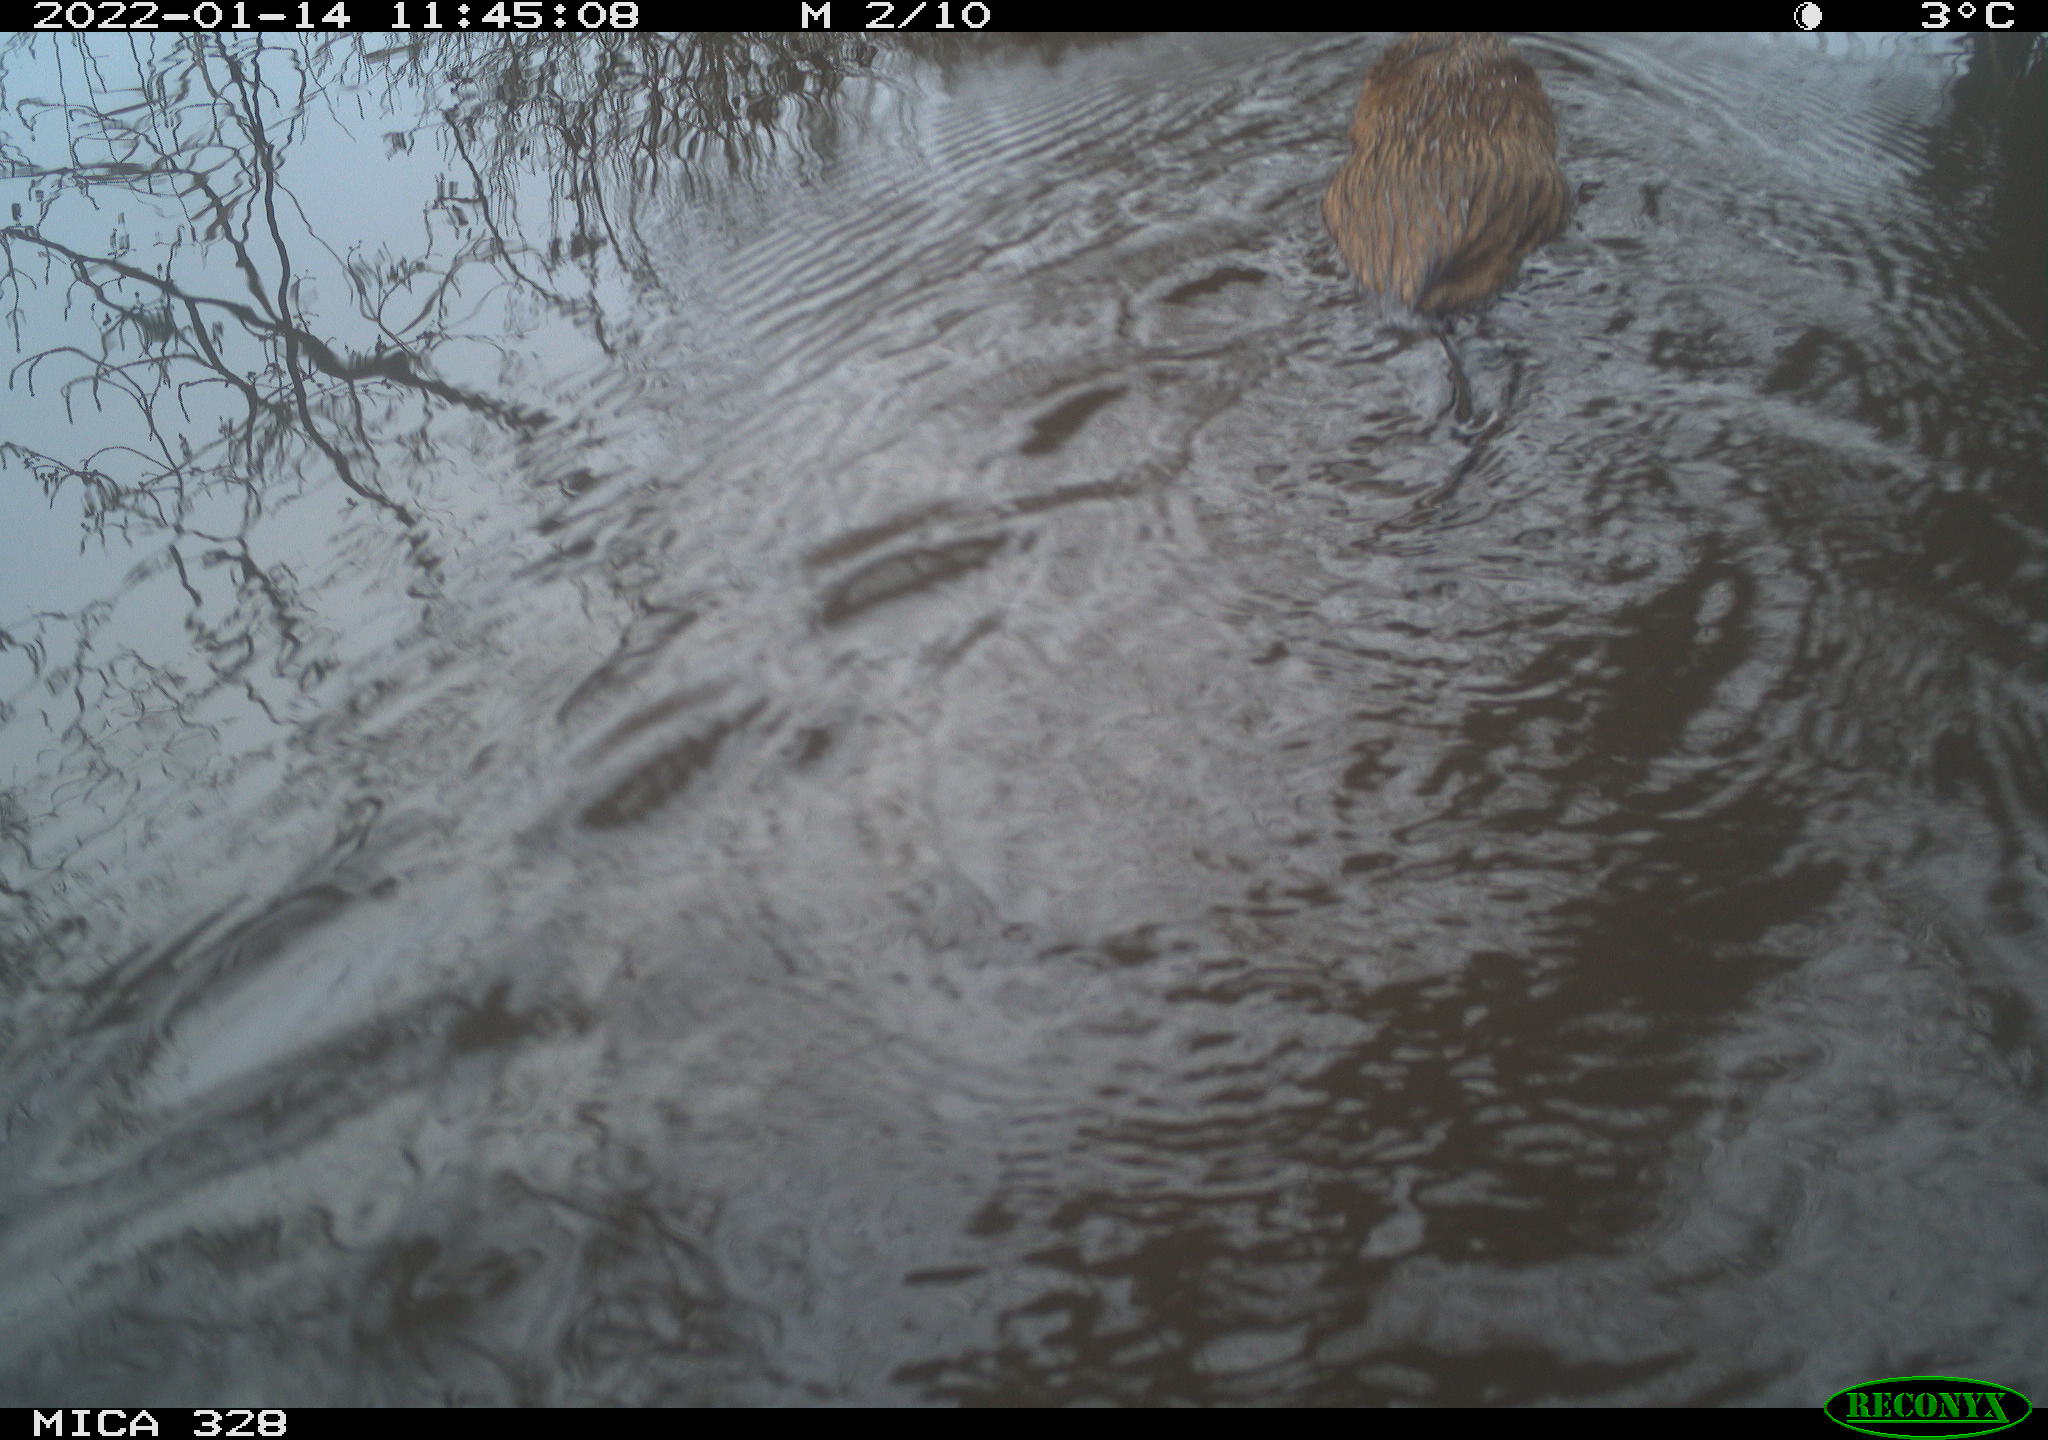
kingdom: Animalia
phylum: Chordata
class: Mammalia
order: Rodentia
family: Cricetidae
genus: Ondatra
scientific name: Ondatra zibethicus
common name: Muskrat
